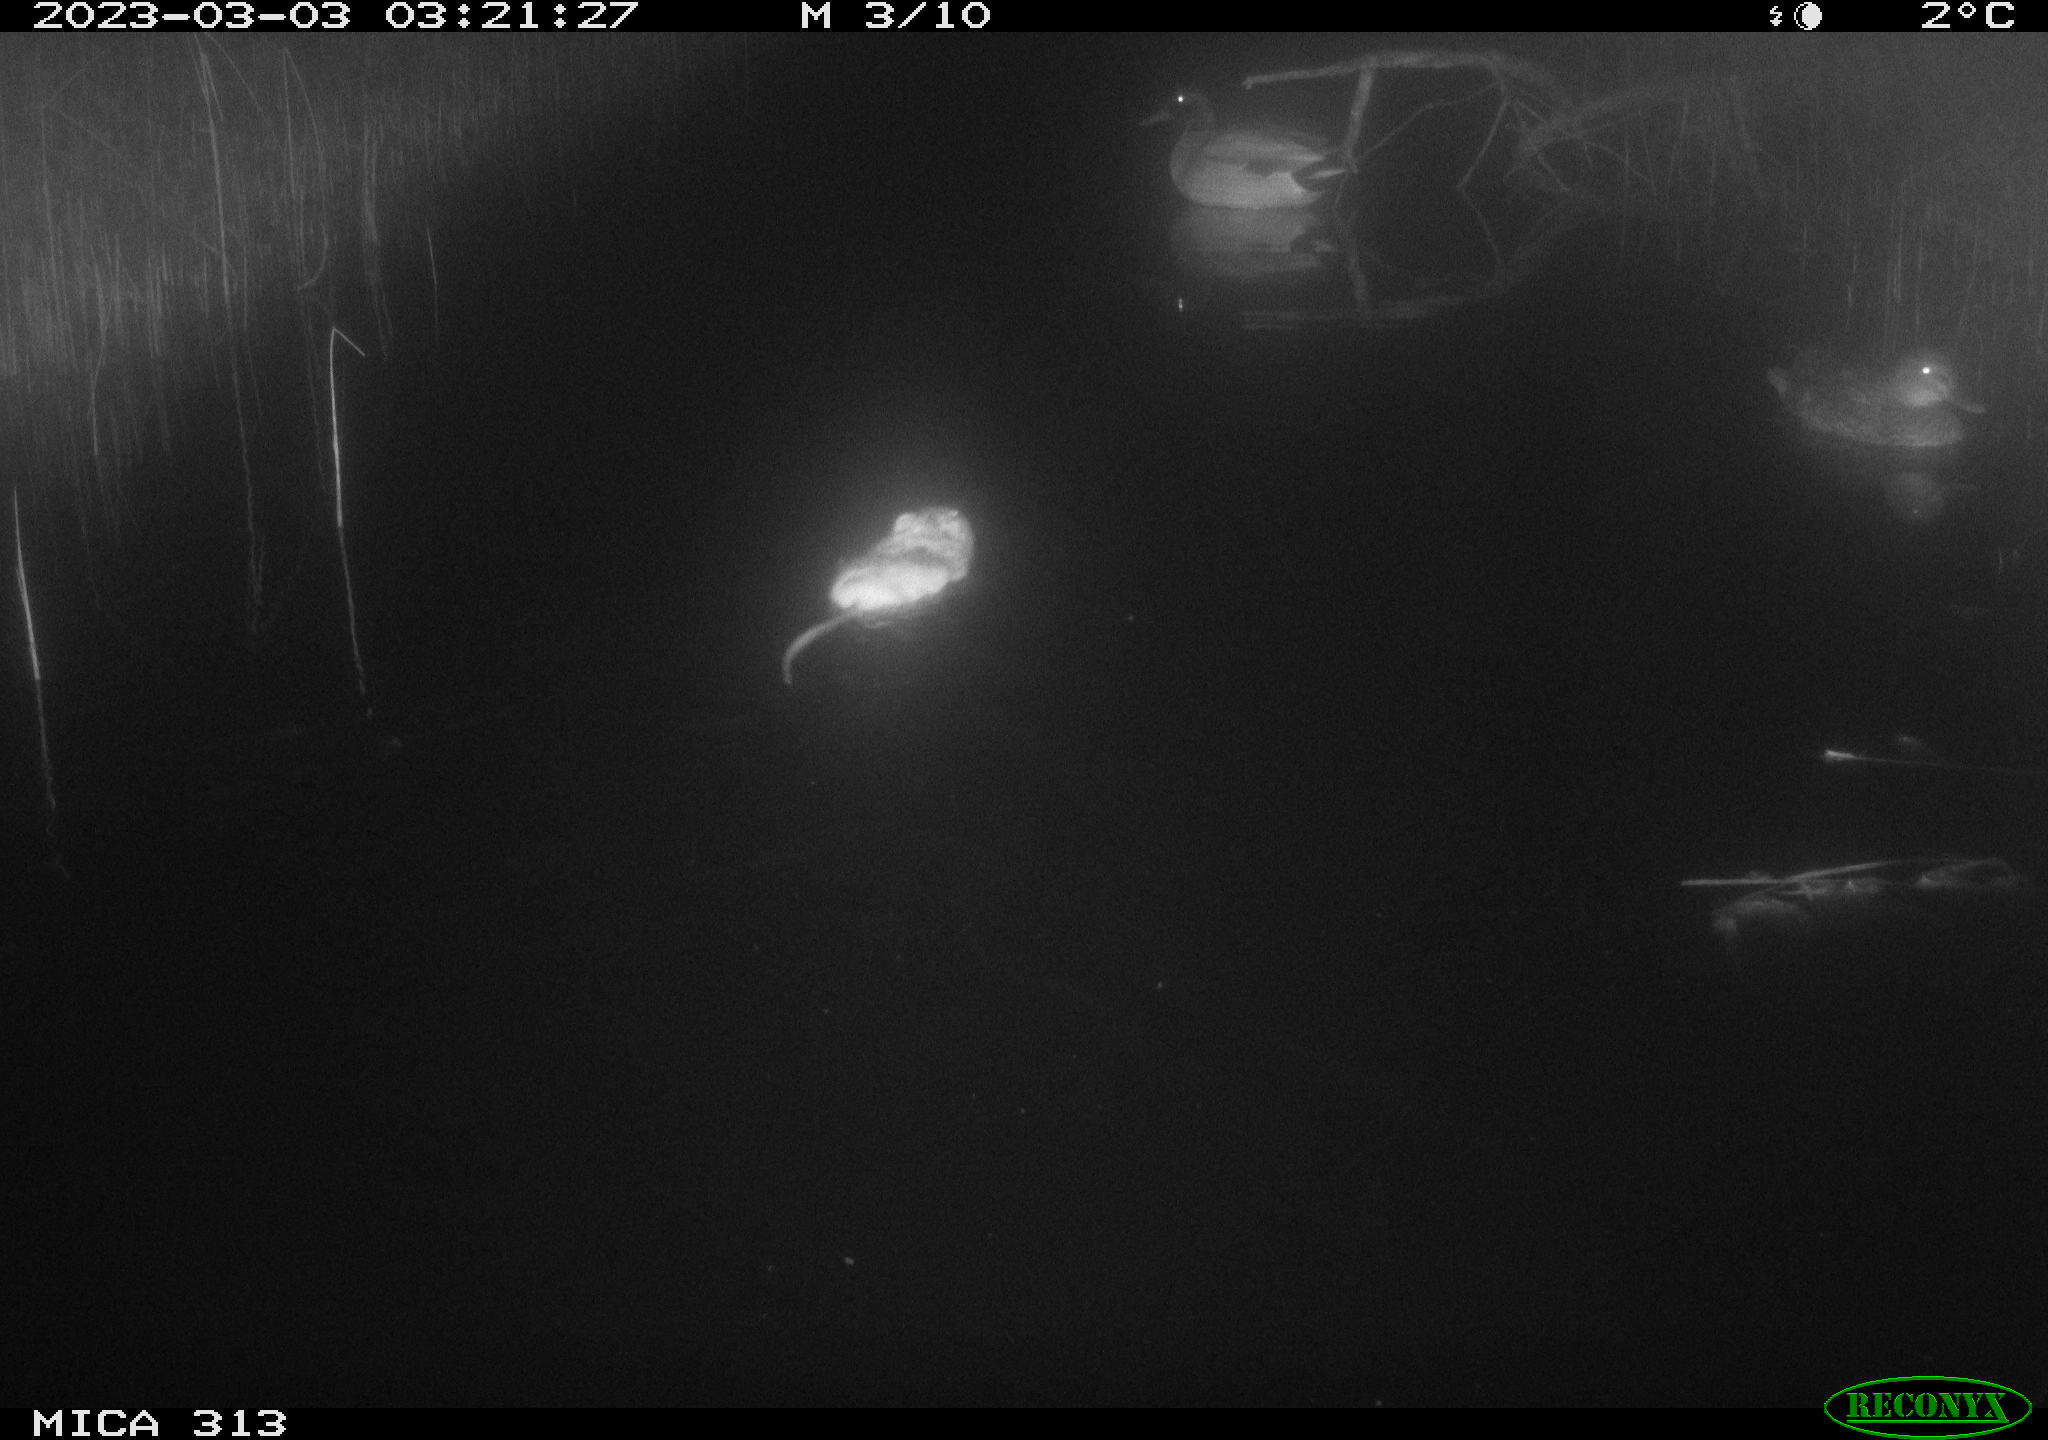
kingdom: Animalia
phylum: Chordata
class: Mammalia
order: Rodentia
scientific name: Rodentia
